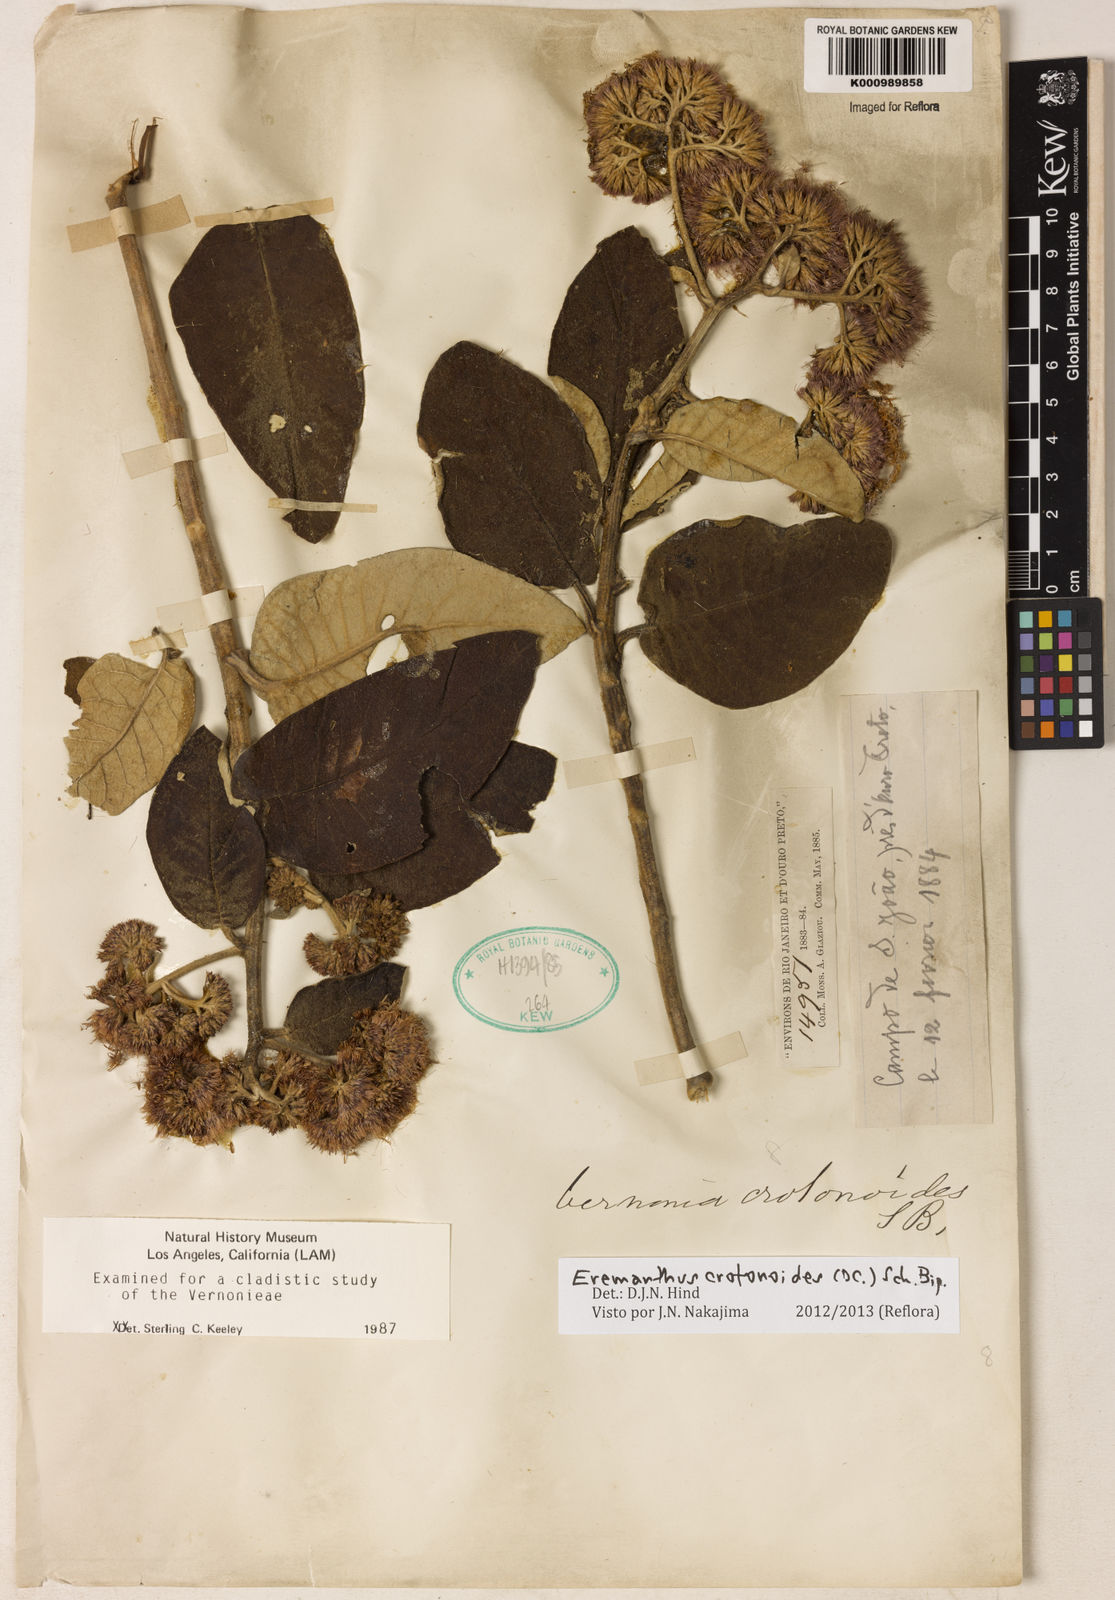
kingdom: Plantae
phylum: Tracheophyta
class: Magnoliopsida
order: Asterales
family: Asteraceae
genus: Eremanthus
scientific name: Eremanthus crotonoides
